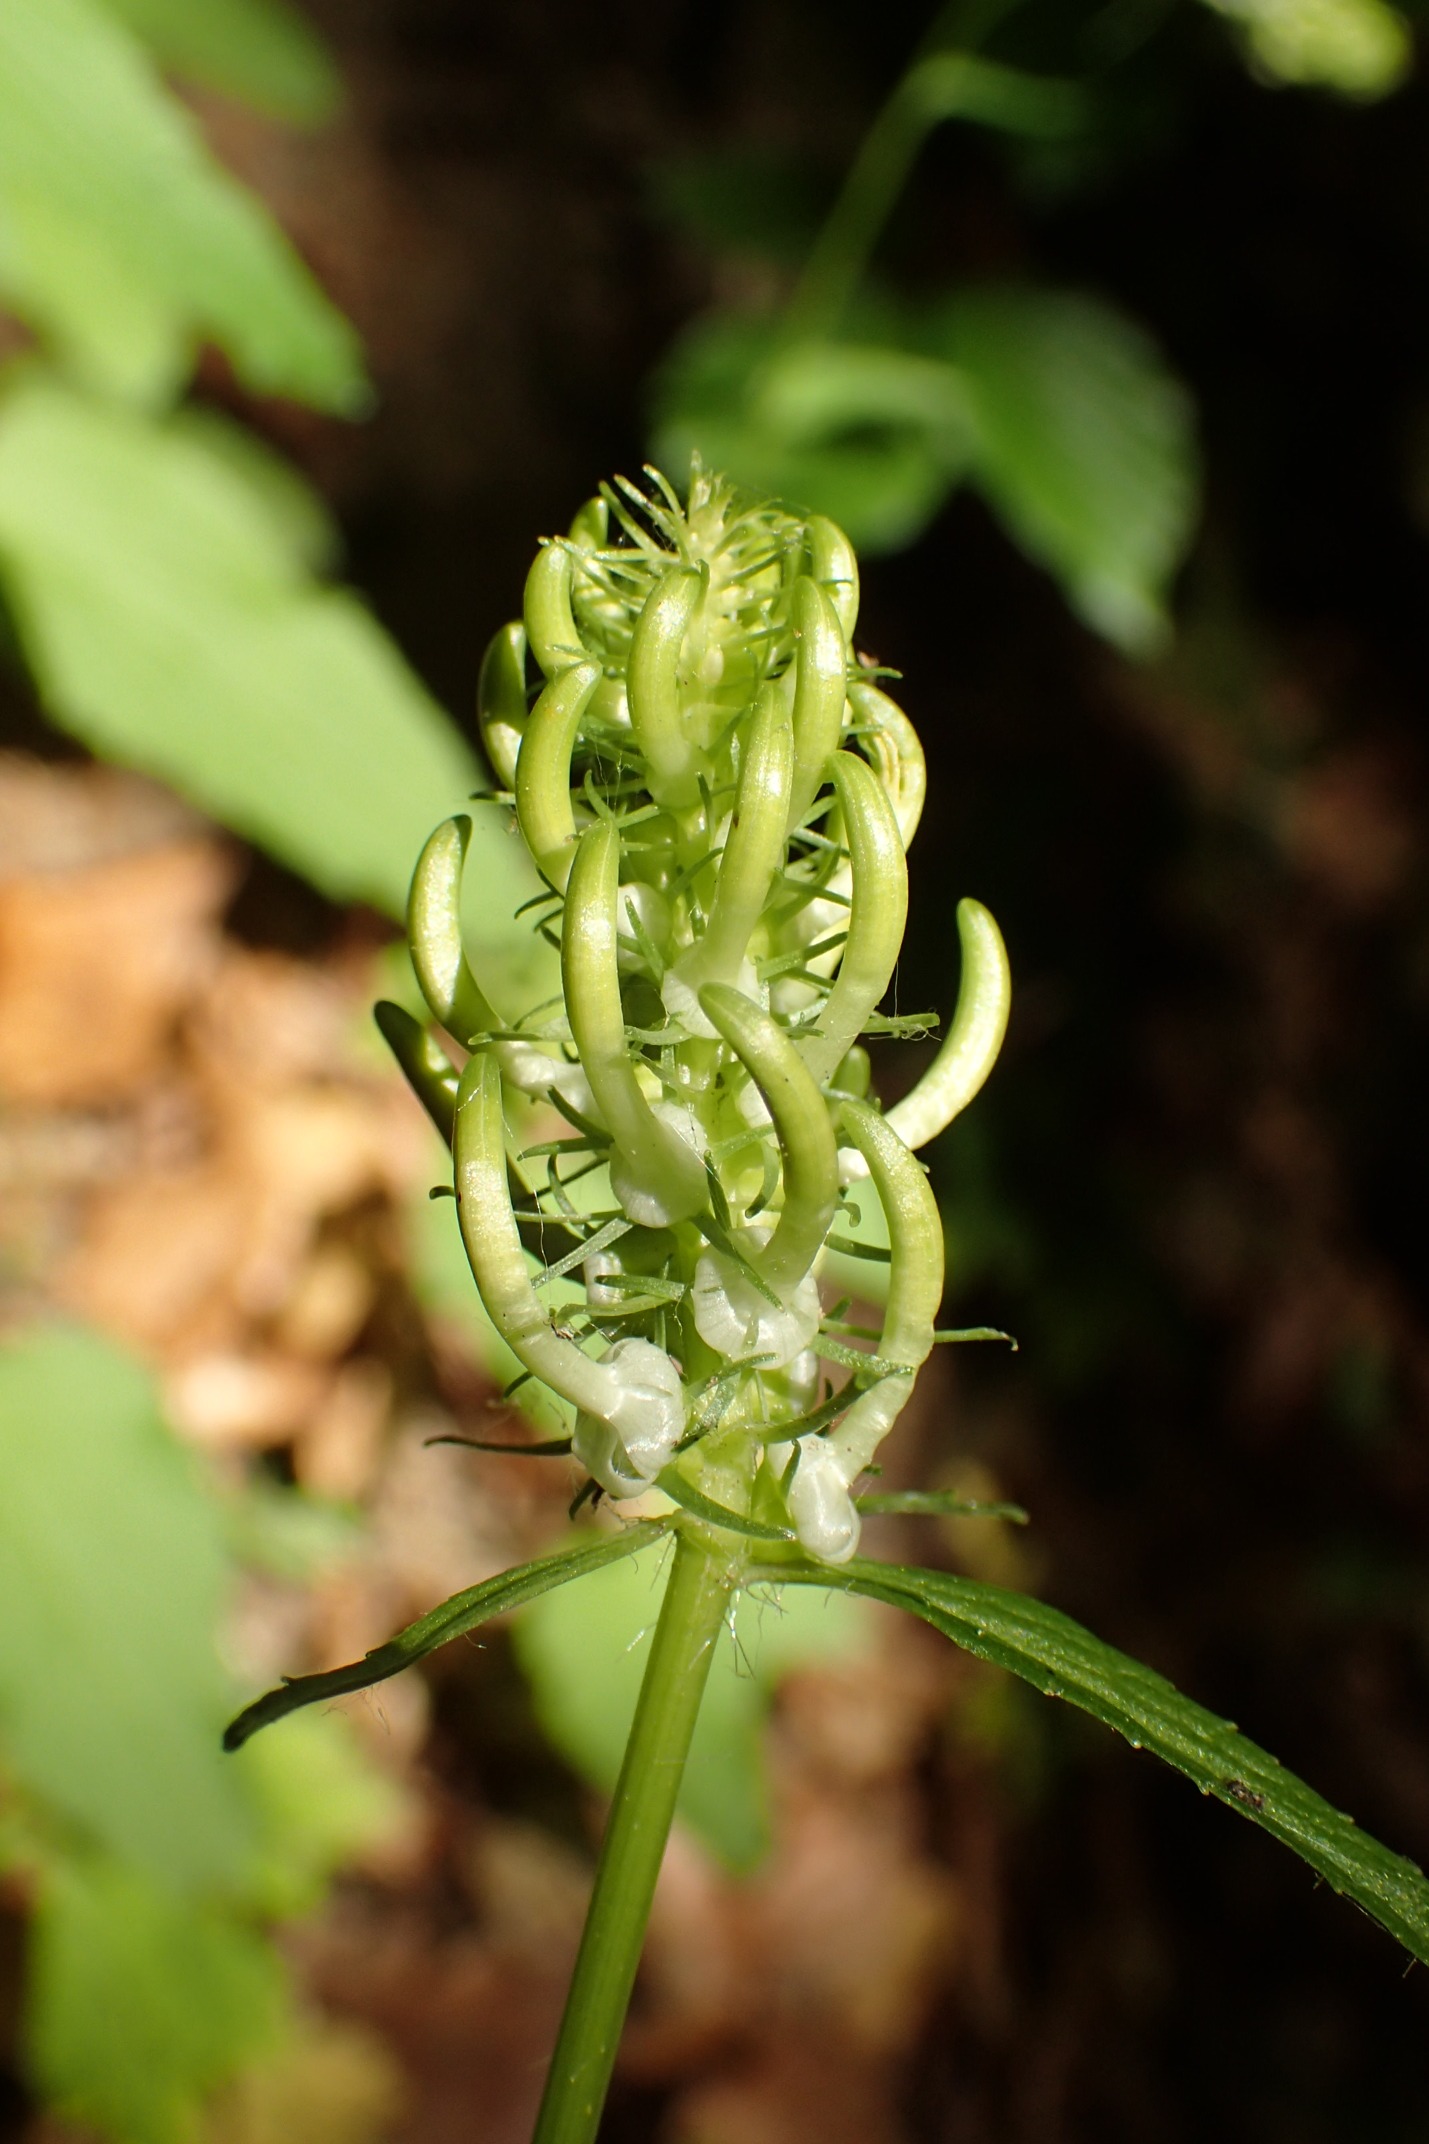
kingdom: Plantae
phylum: Tracheophyta
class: Magnoliopsida
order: Asterales
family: Campanulaceae
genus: Phyteuma
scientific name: Phyteuma spicatum
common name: Aks-rapunsel
